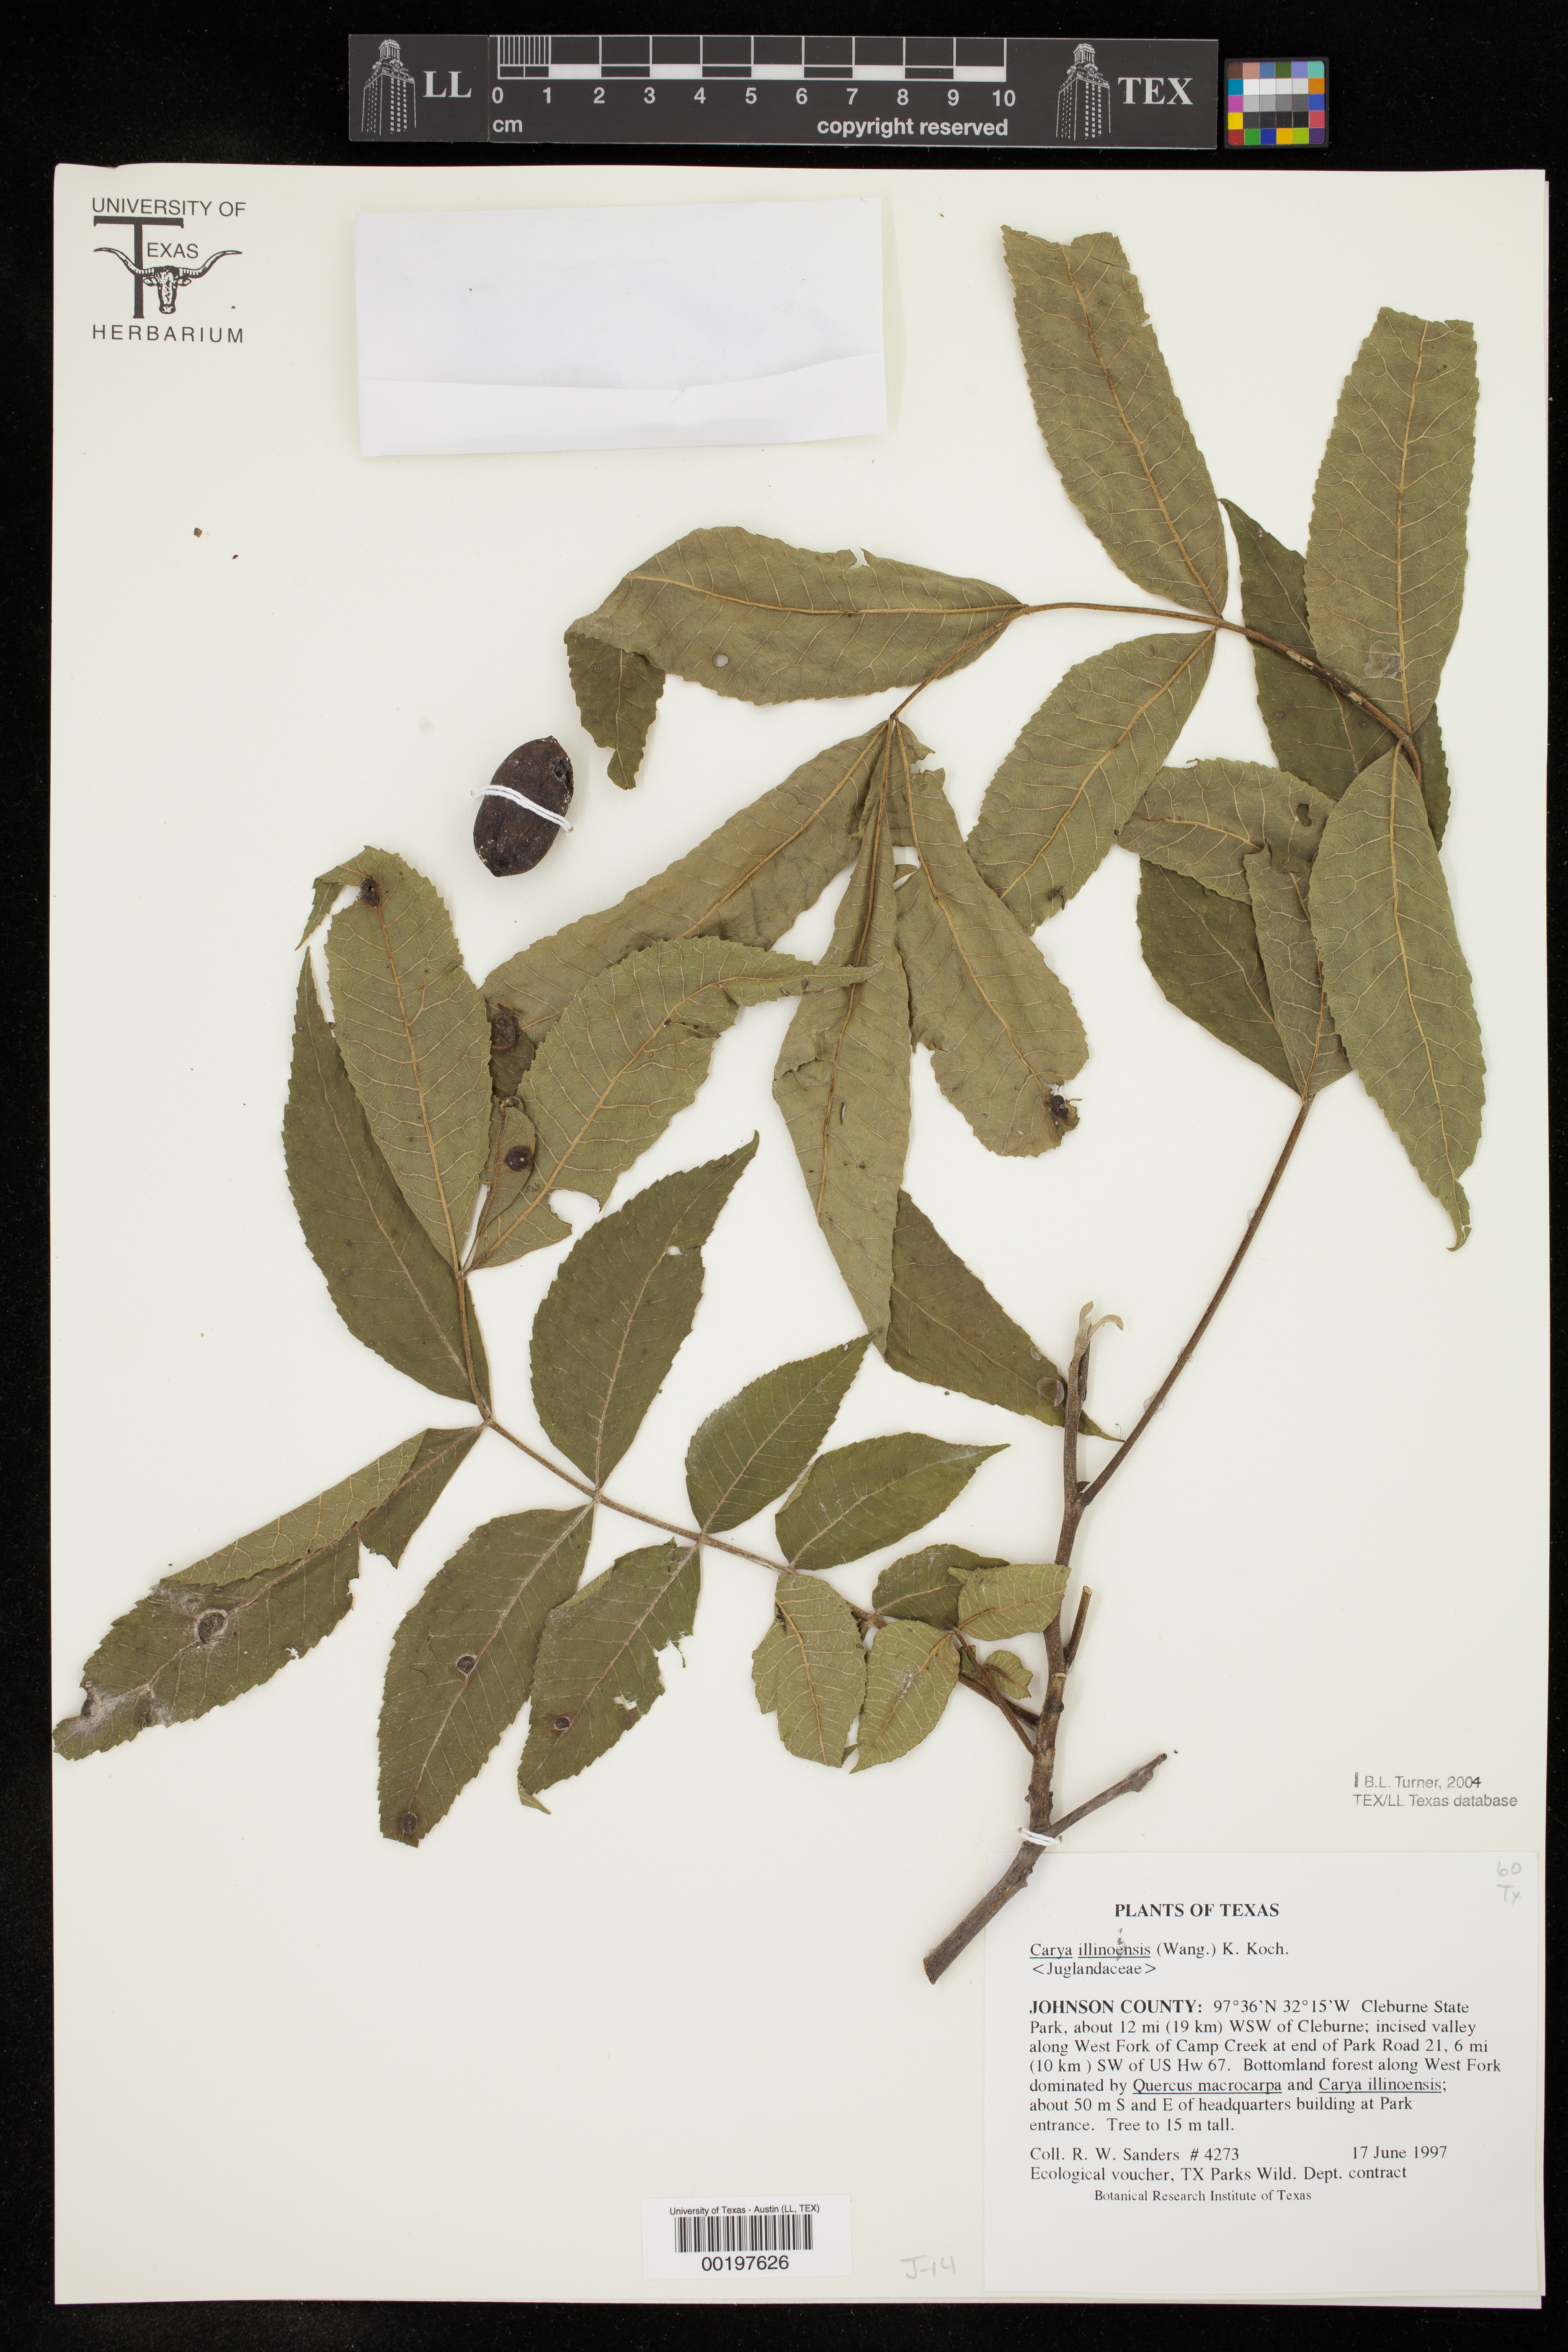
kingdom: Plantae
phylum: Tracheophyta
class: Magnoliopsida
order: Fagales
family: Juglandaceae
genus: Carya
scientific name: Carya illinoinensis
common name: Pecan
